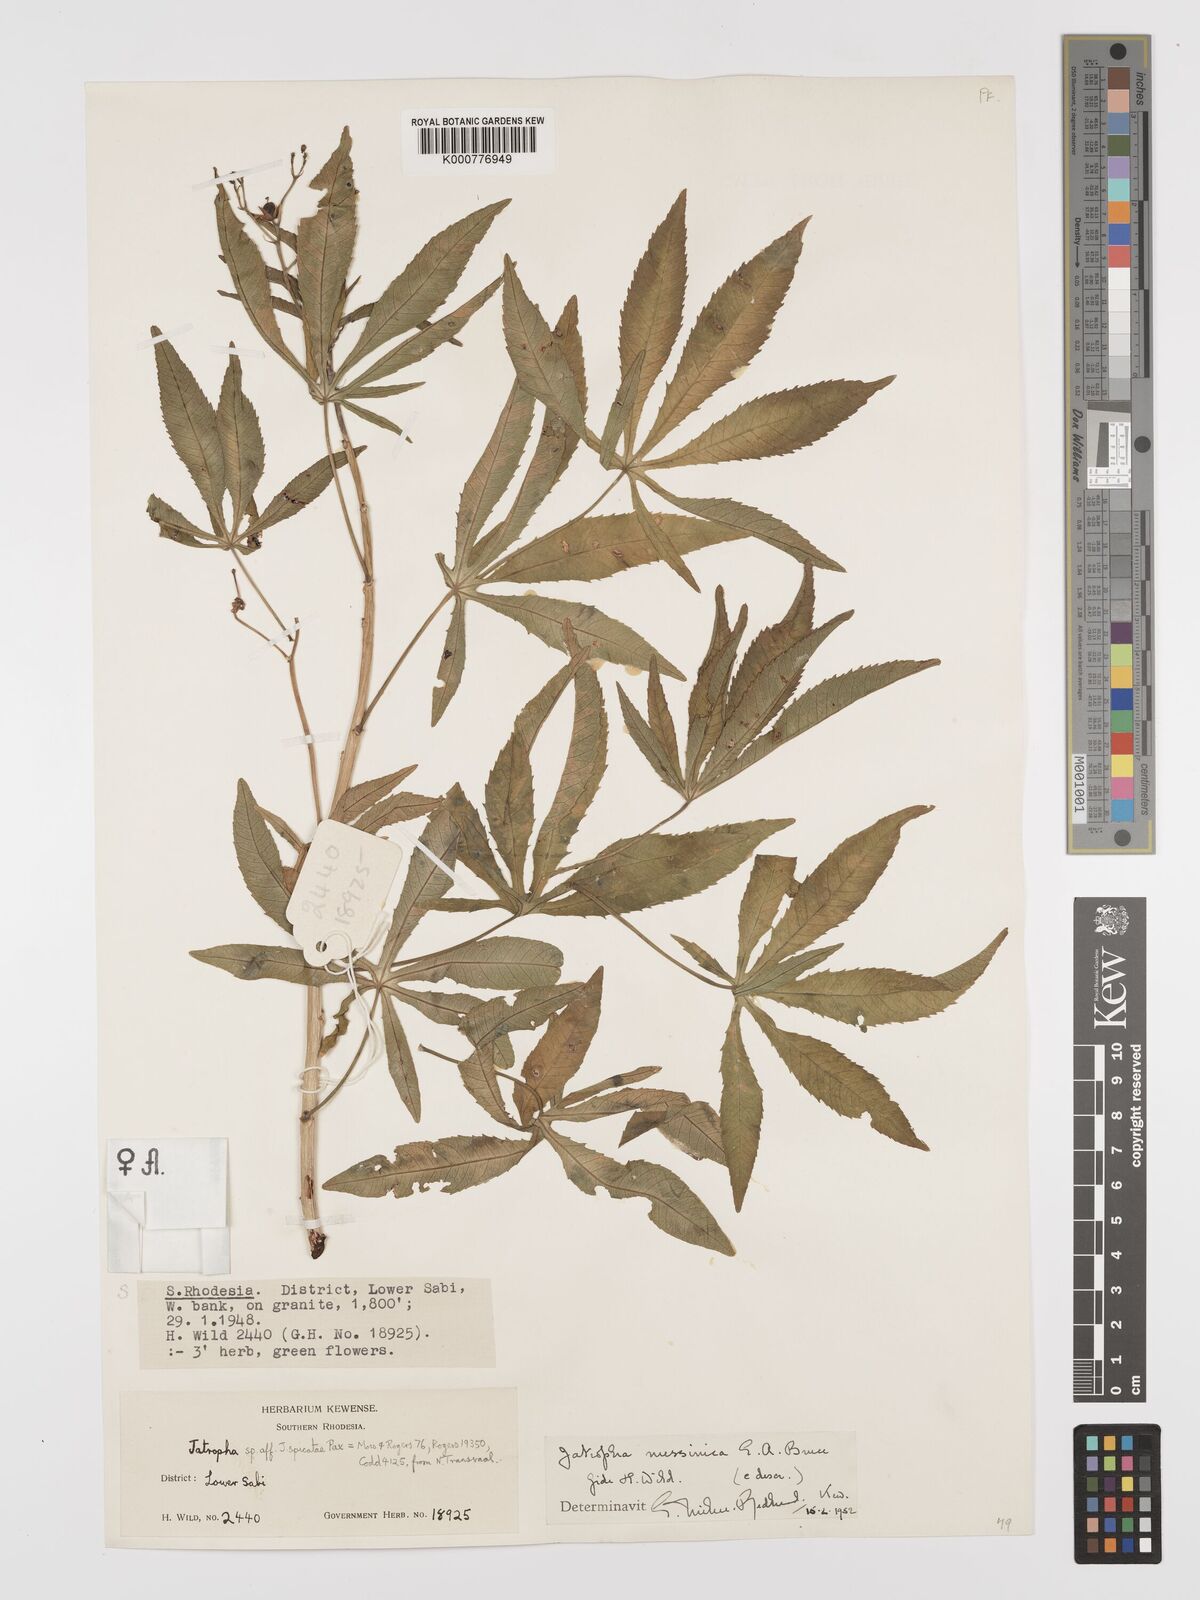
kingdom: Plantae
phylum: Tracheophyta
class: Magnoliopsida
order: Malpighiales
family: Euphorbiaceae
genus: Jatropha
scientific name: Jatropha spicata
